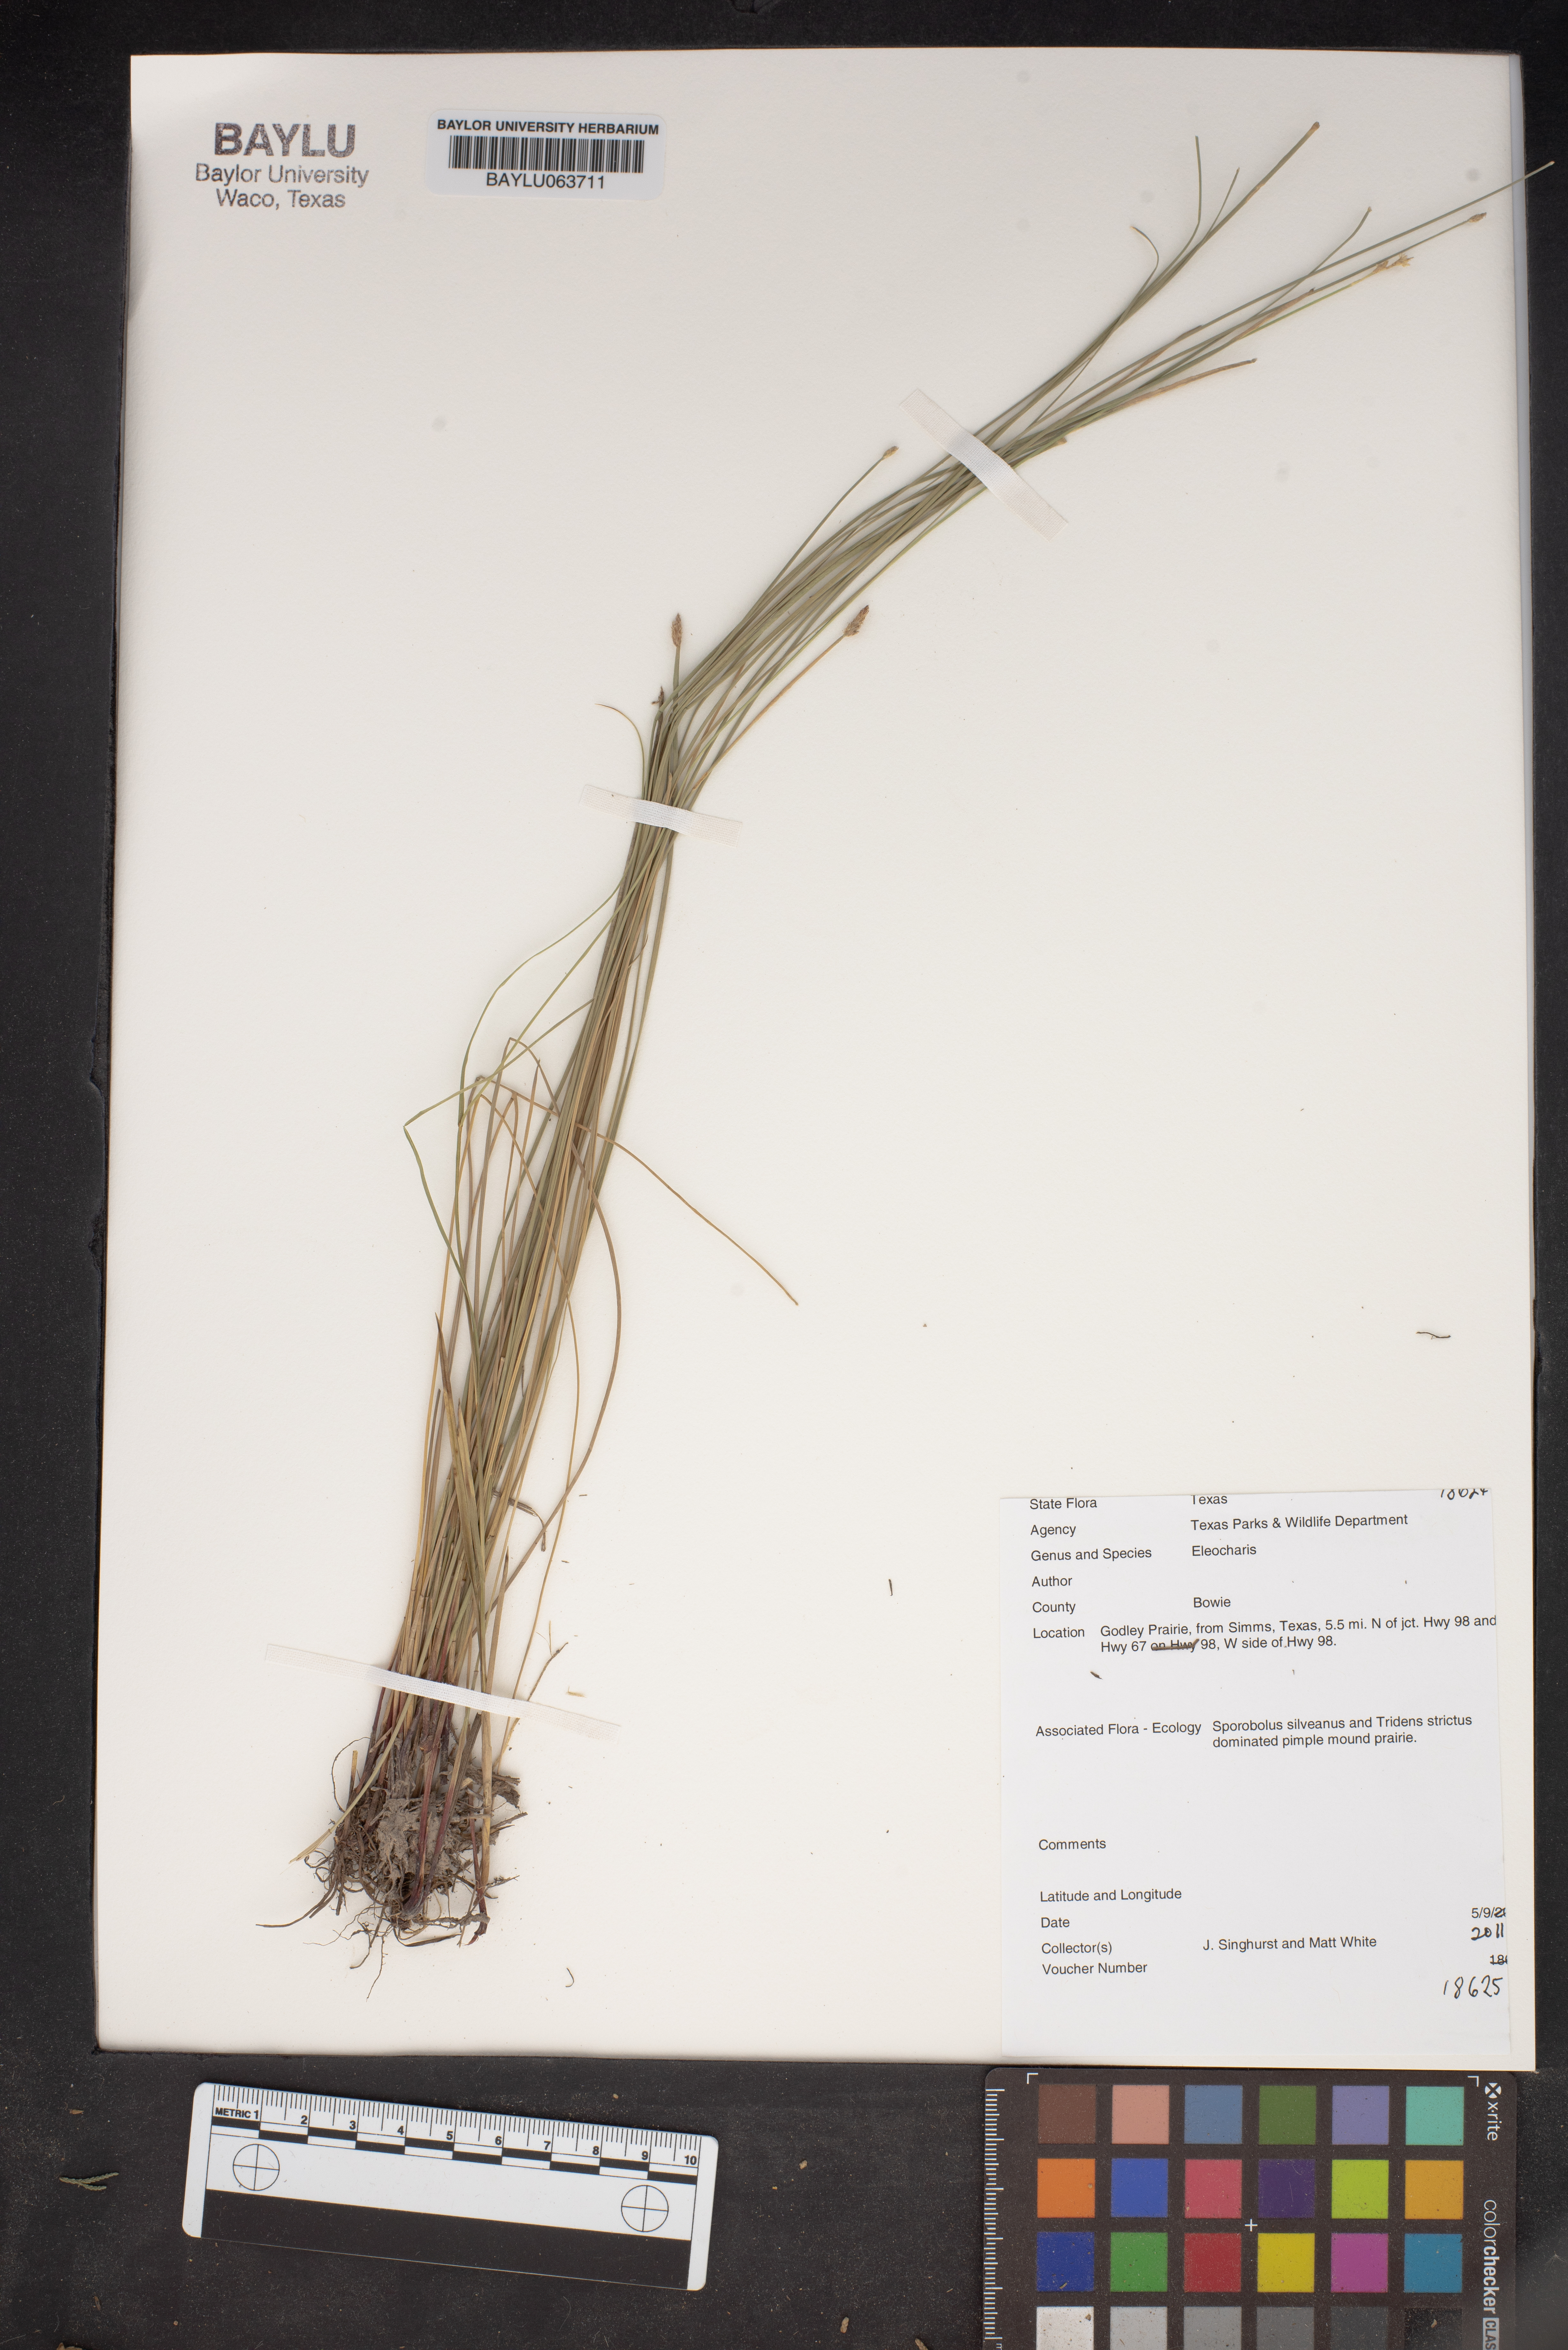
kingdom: Plantae
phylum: Tracheophyta
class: Liliopsida
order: Poales
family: Cyperaceae
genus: Eleocharis
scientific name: Eleocharis
